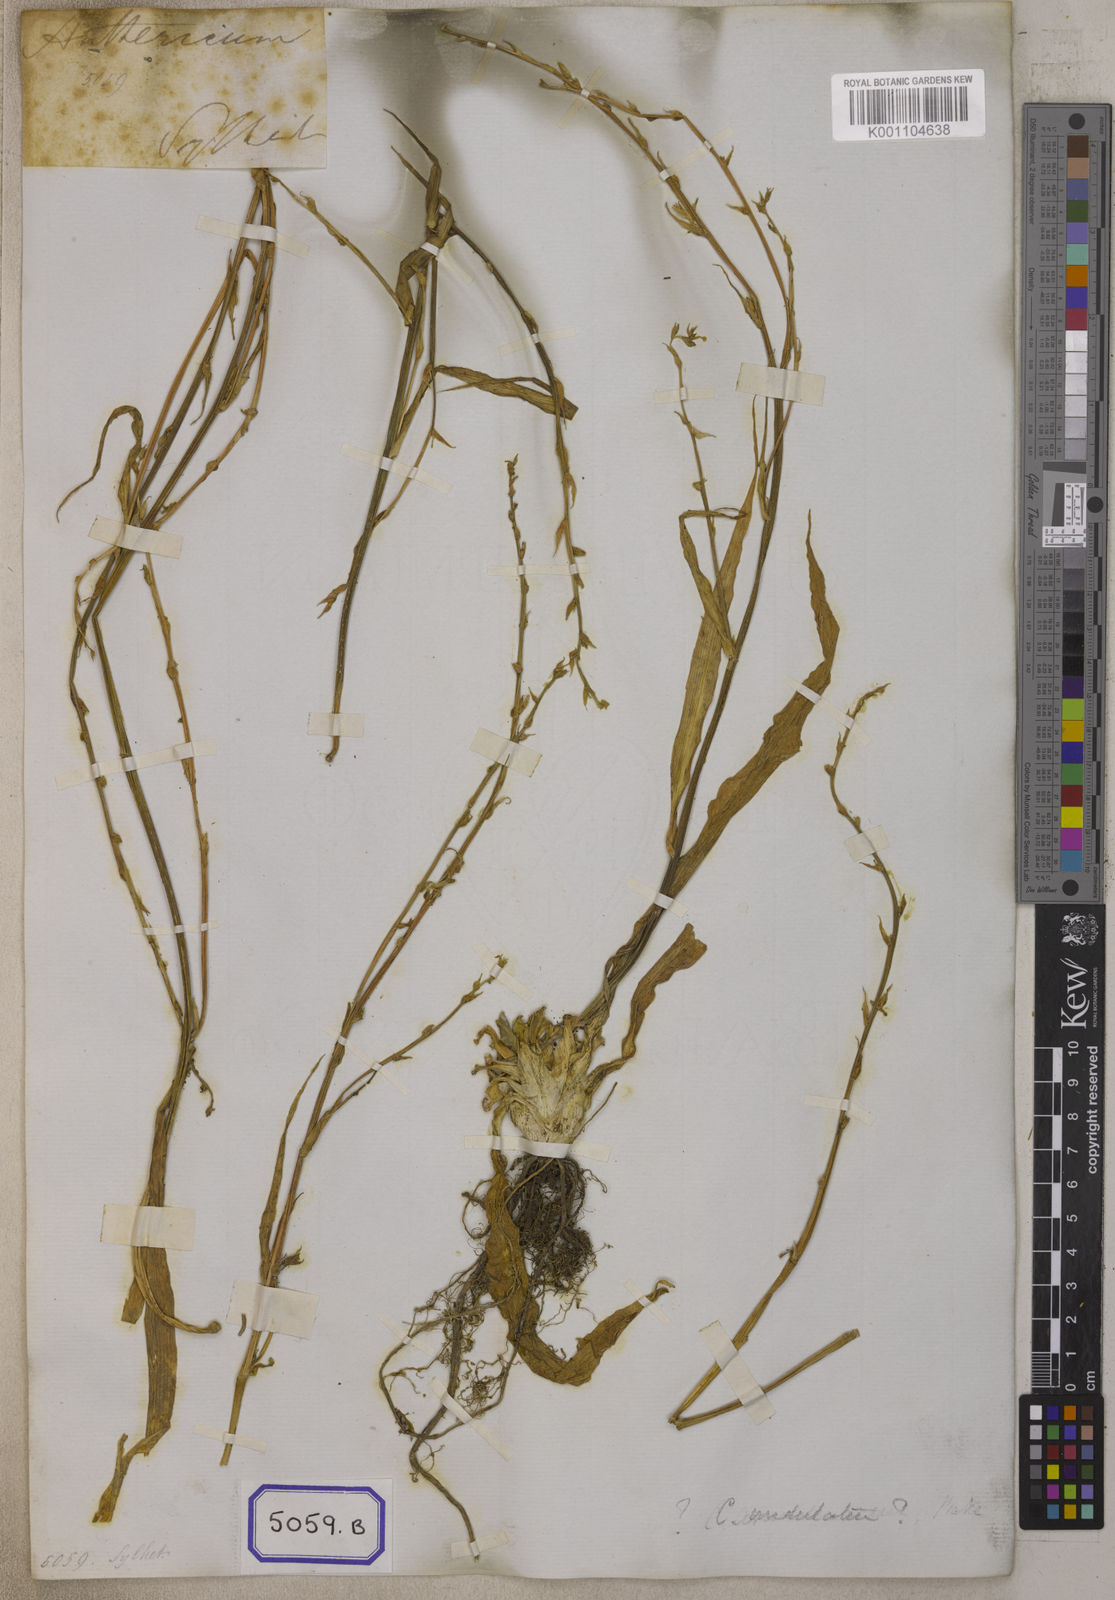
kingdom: Plantae
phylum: Tracheophyta
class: Liliopsida
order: Asparagales
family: Asparagaceae
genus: Chlorophytum
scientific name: Chlorophytum
